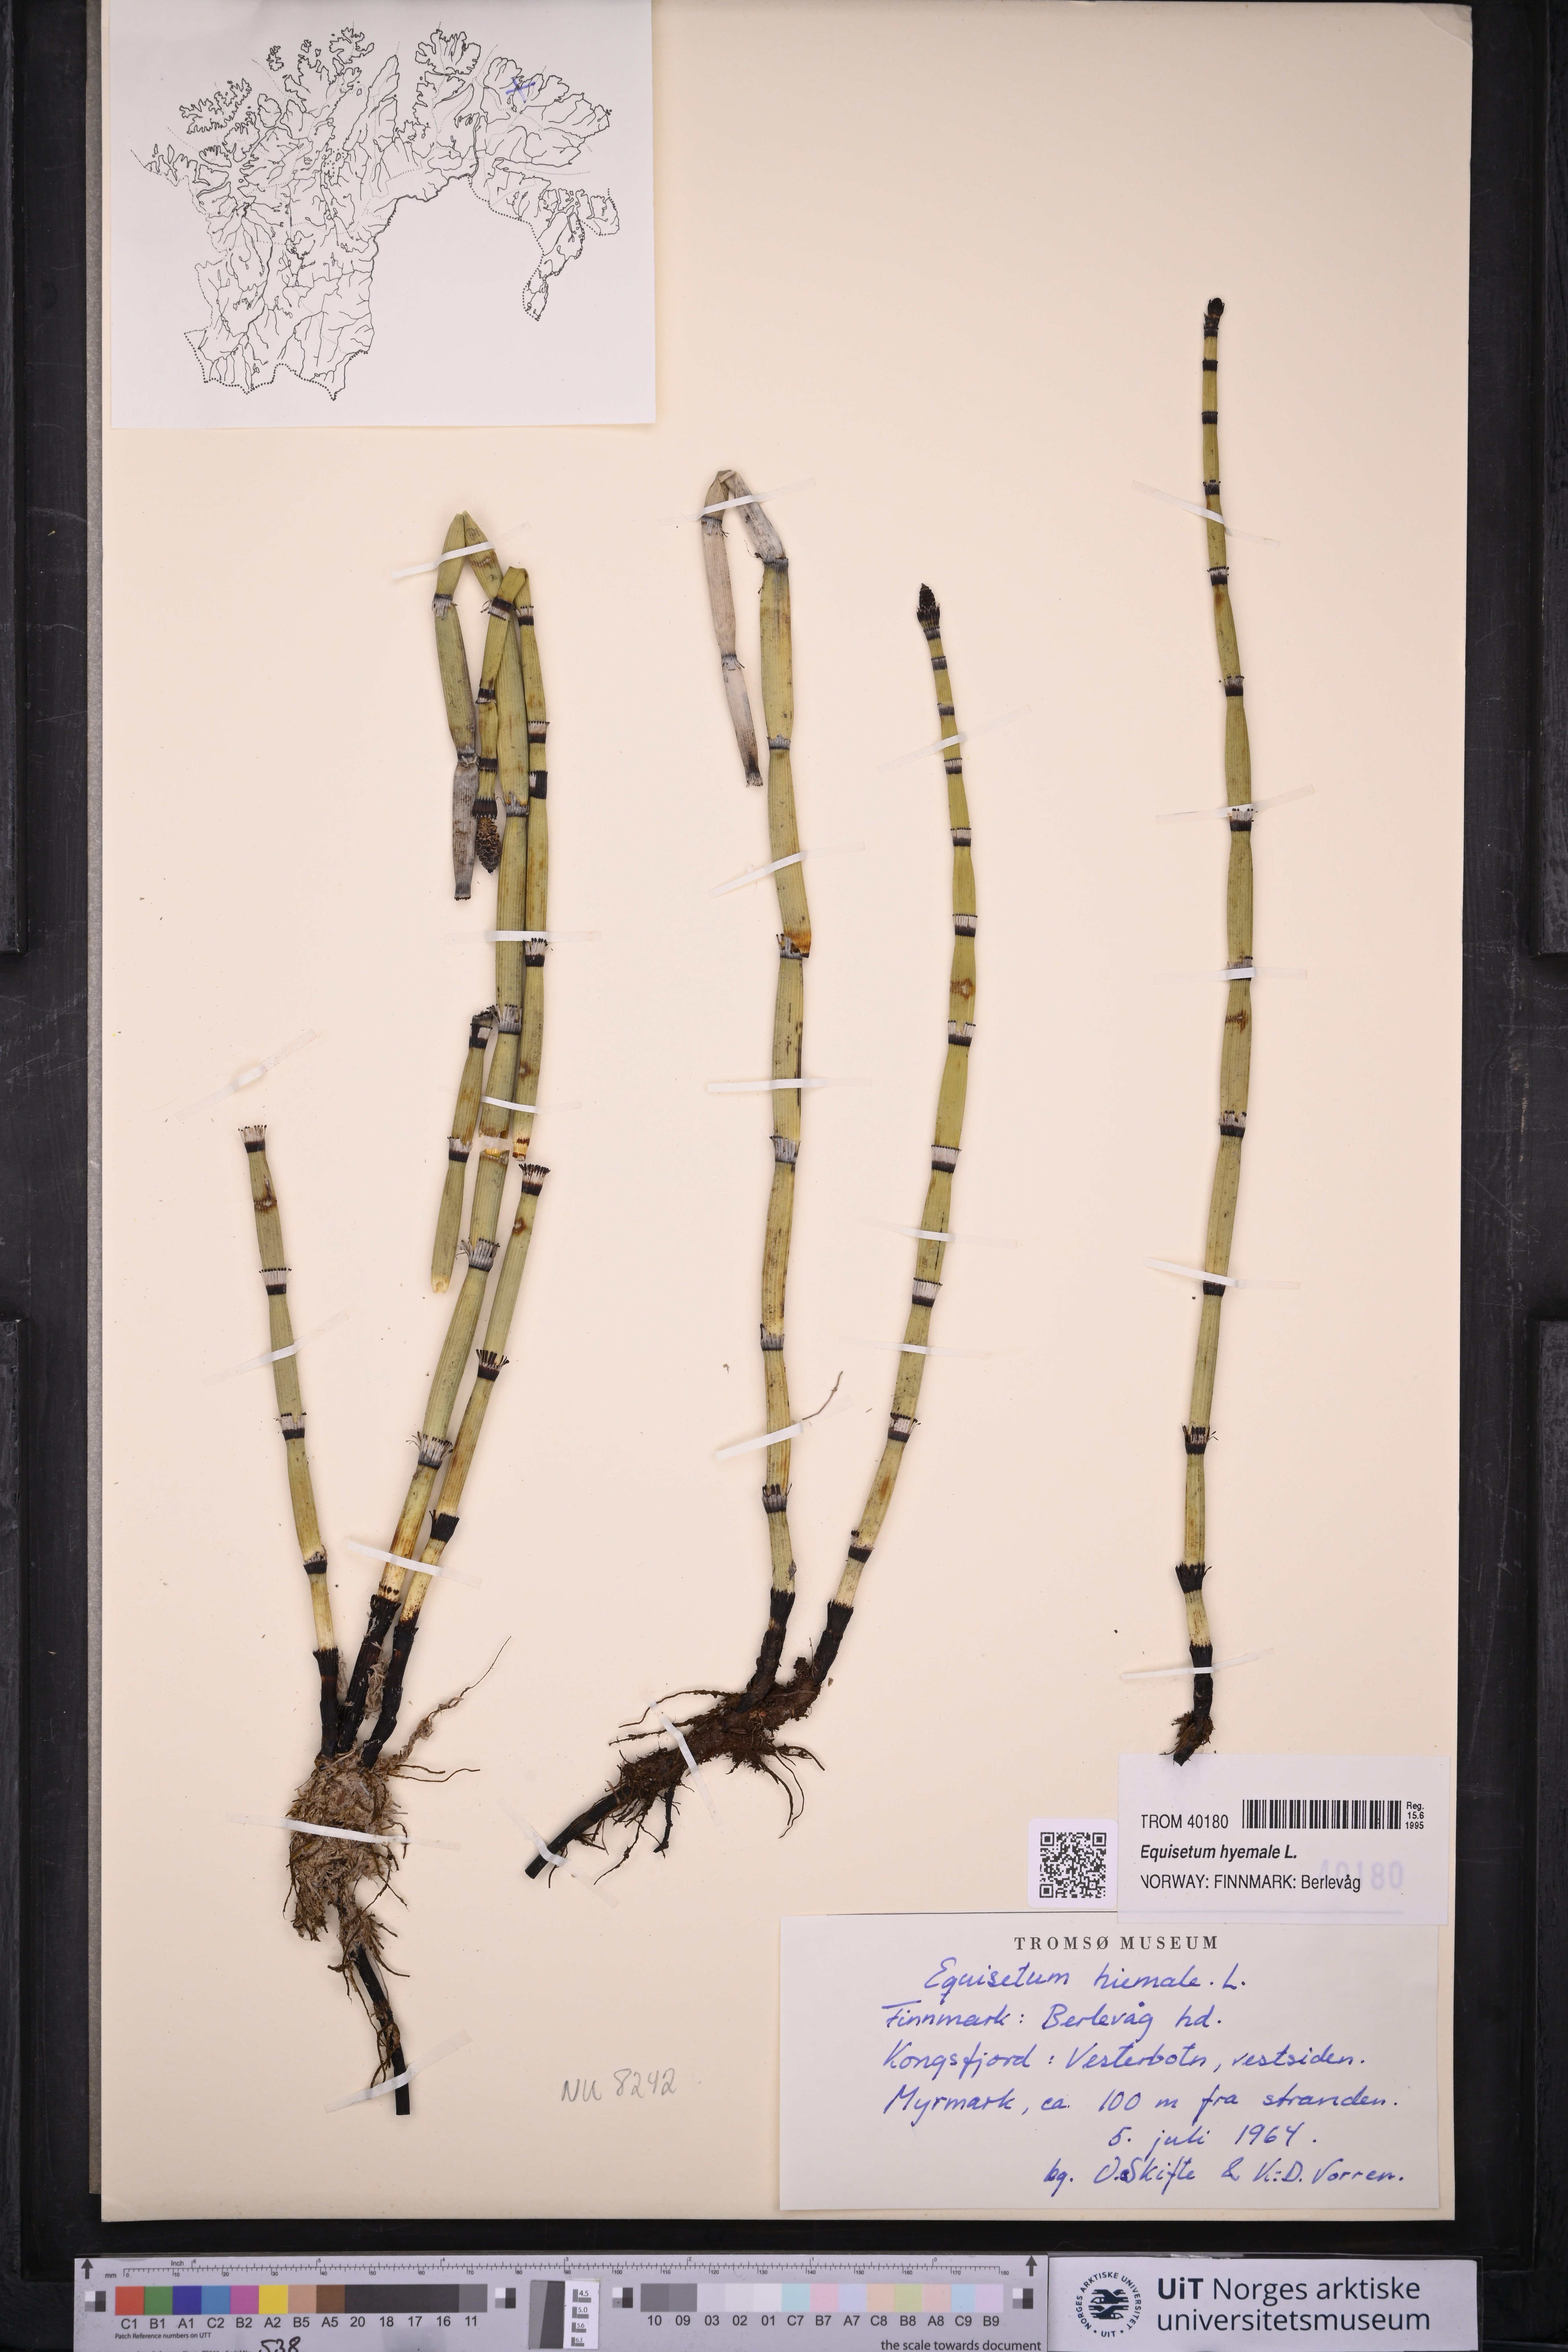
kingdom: Plantae
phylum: Tracheophyta
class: Polypodiopsida
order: Equisetales
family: Equisetaceae
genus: Equisetum
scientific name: Equisetum hyemale
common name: Rough horsetail
